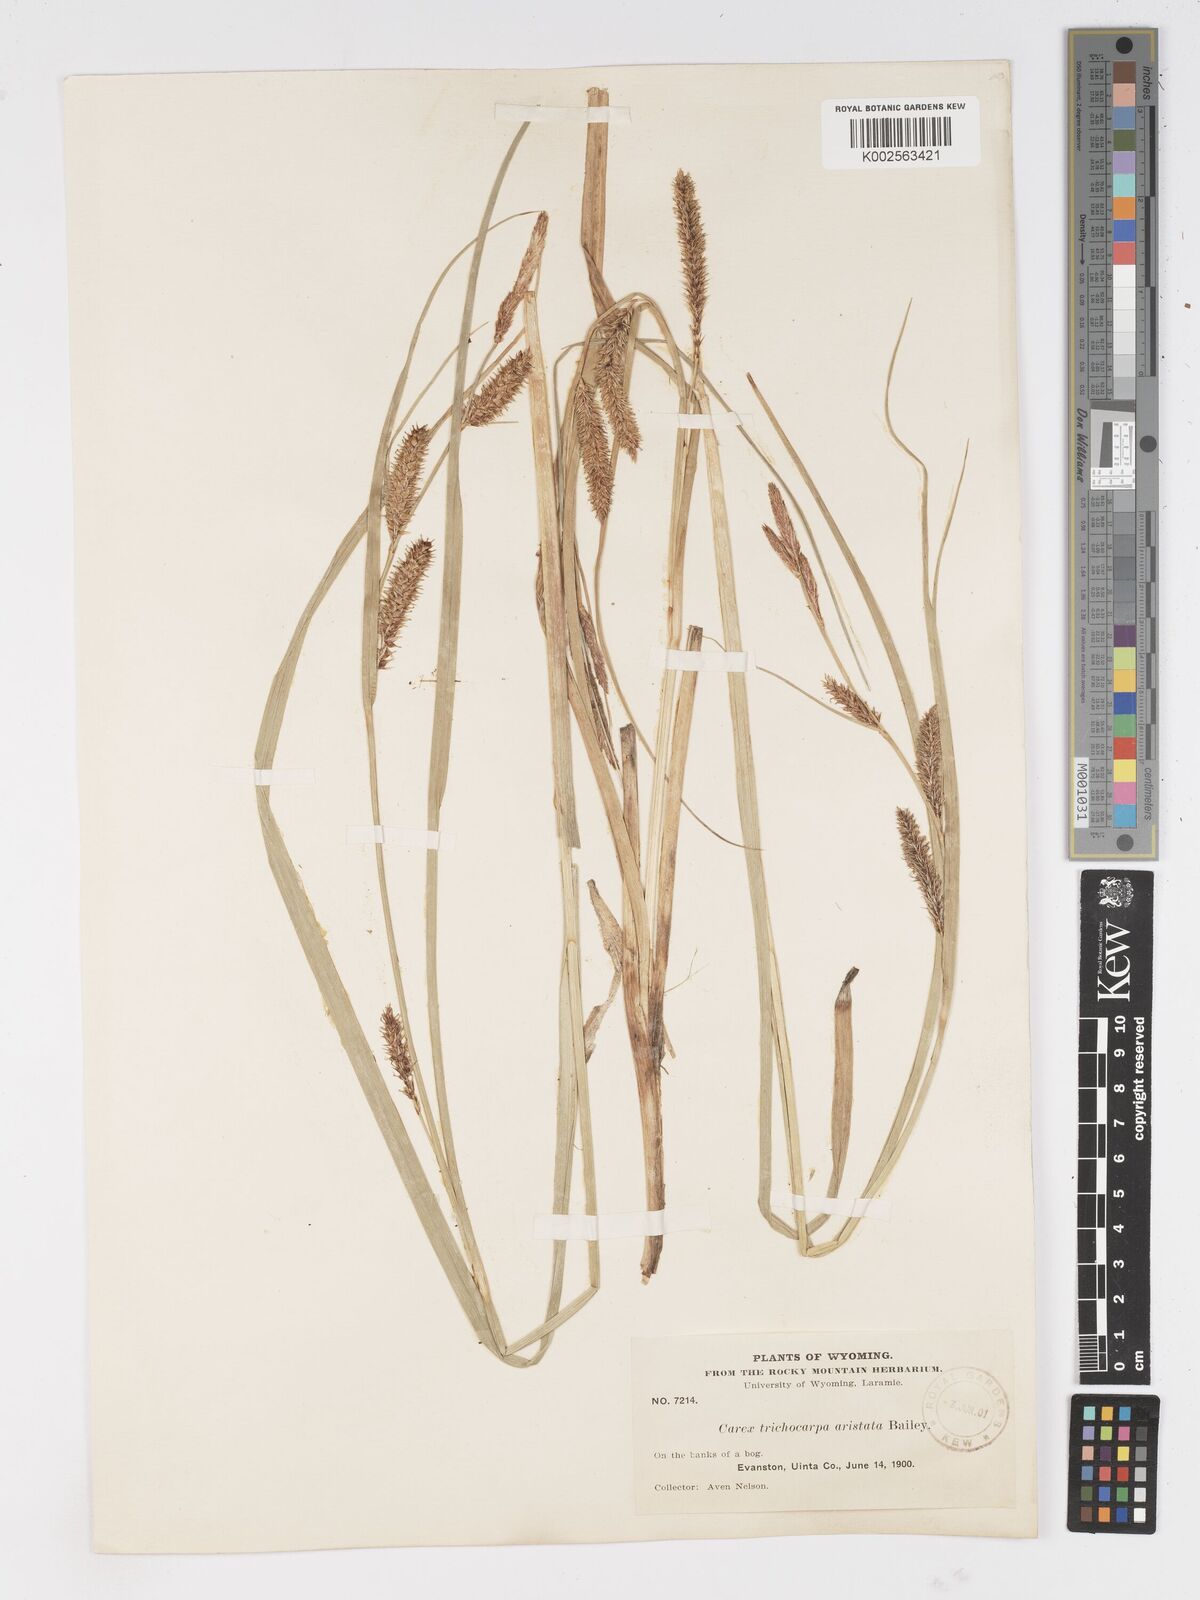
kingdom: Plantae
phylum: Tracheophyta
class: Liliopsida
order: Poales
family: Cyperaceae
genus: Carex
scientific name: Carex atherodes
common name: Wheat sedge
